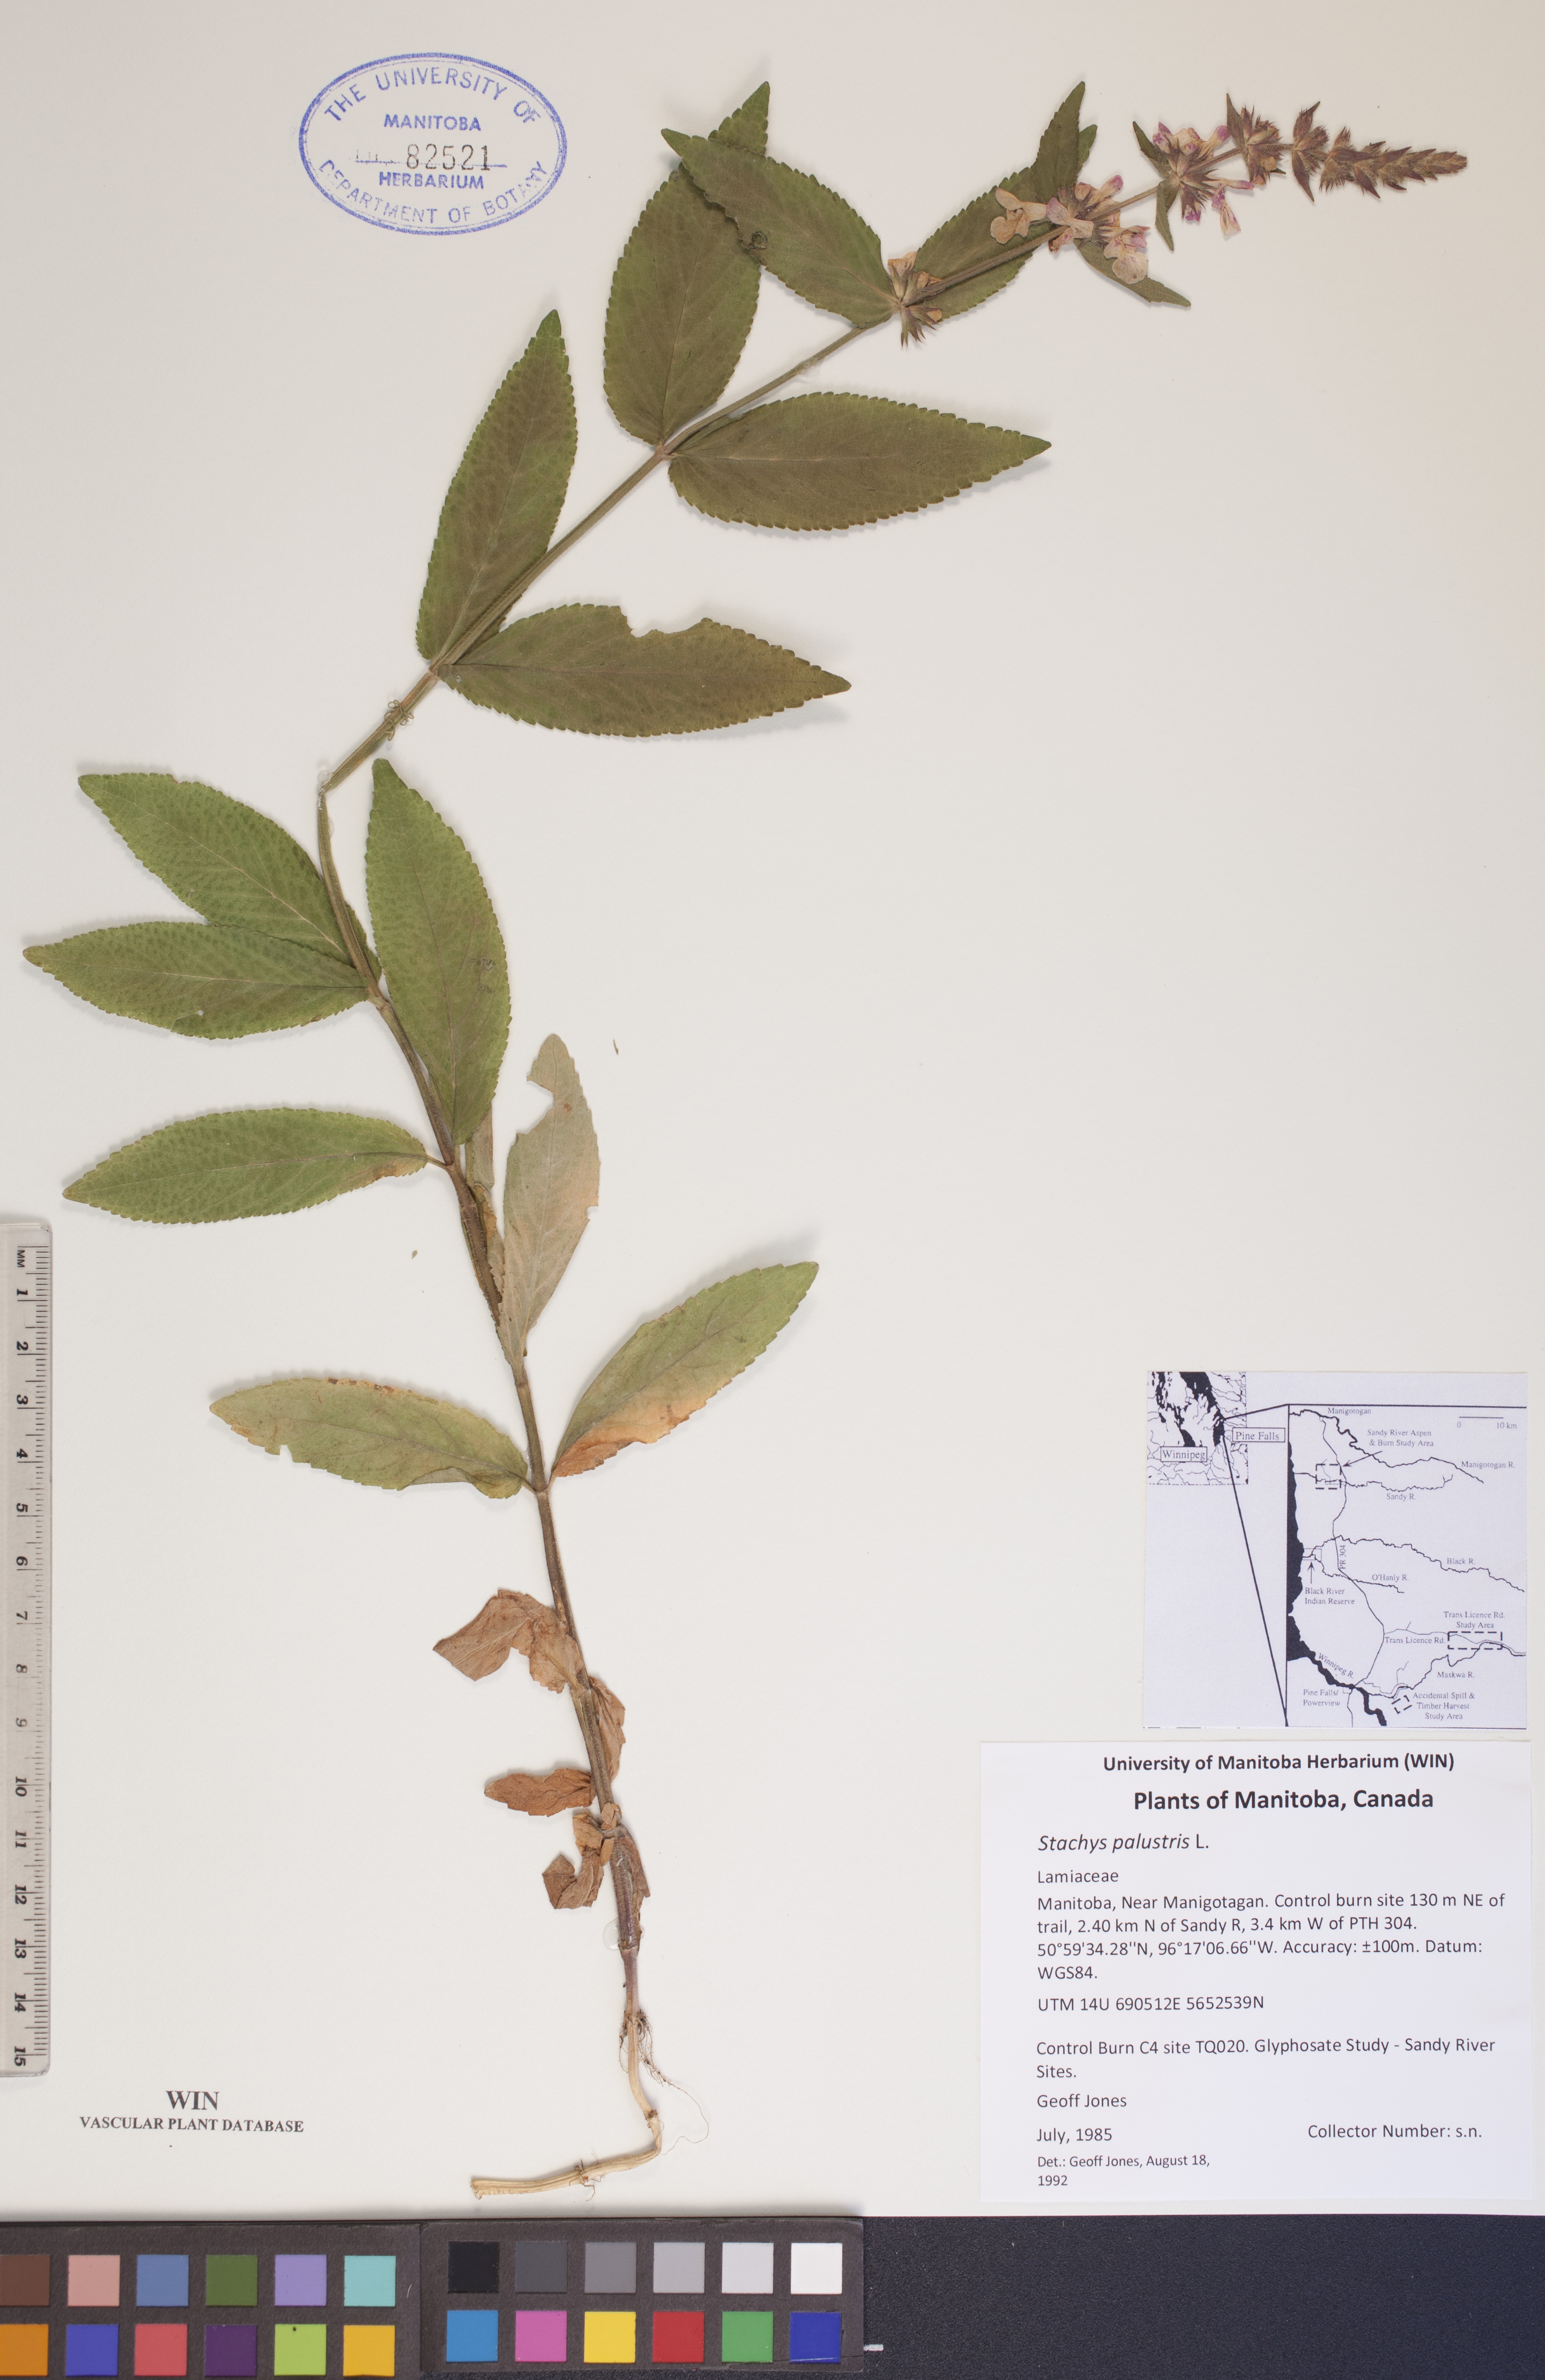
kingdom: Plantae
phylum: Tracheophyta
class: Magnoliopsida
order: Lamiales
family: Lamiaceae
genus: Stachys
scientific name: Stachys palustris
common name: Marsh woundwort
